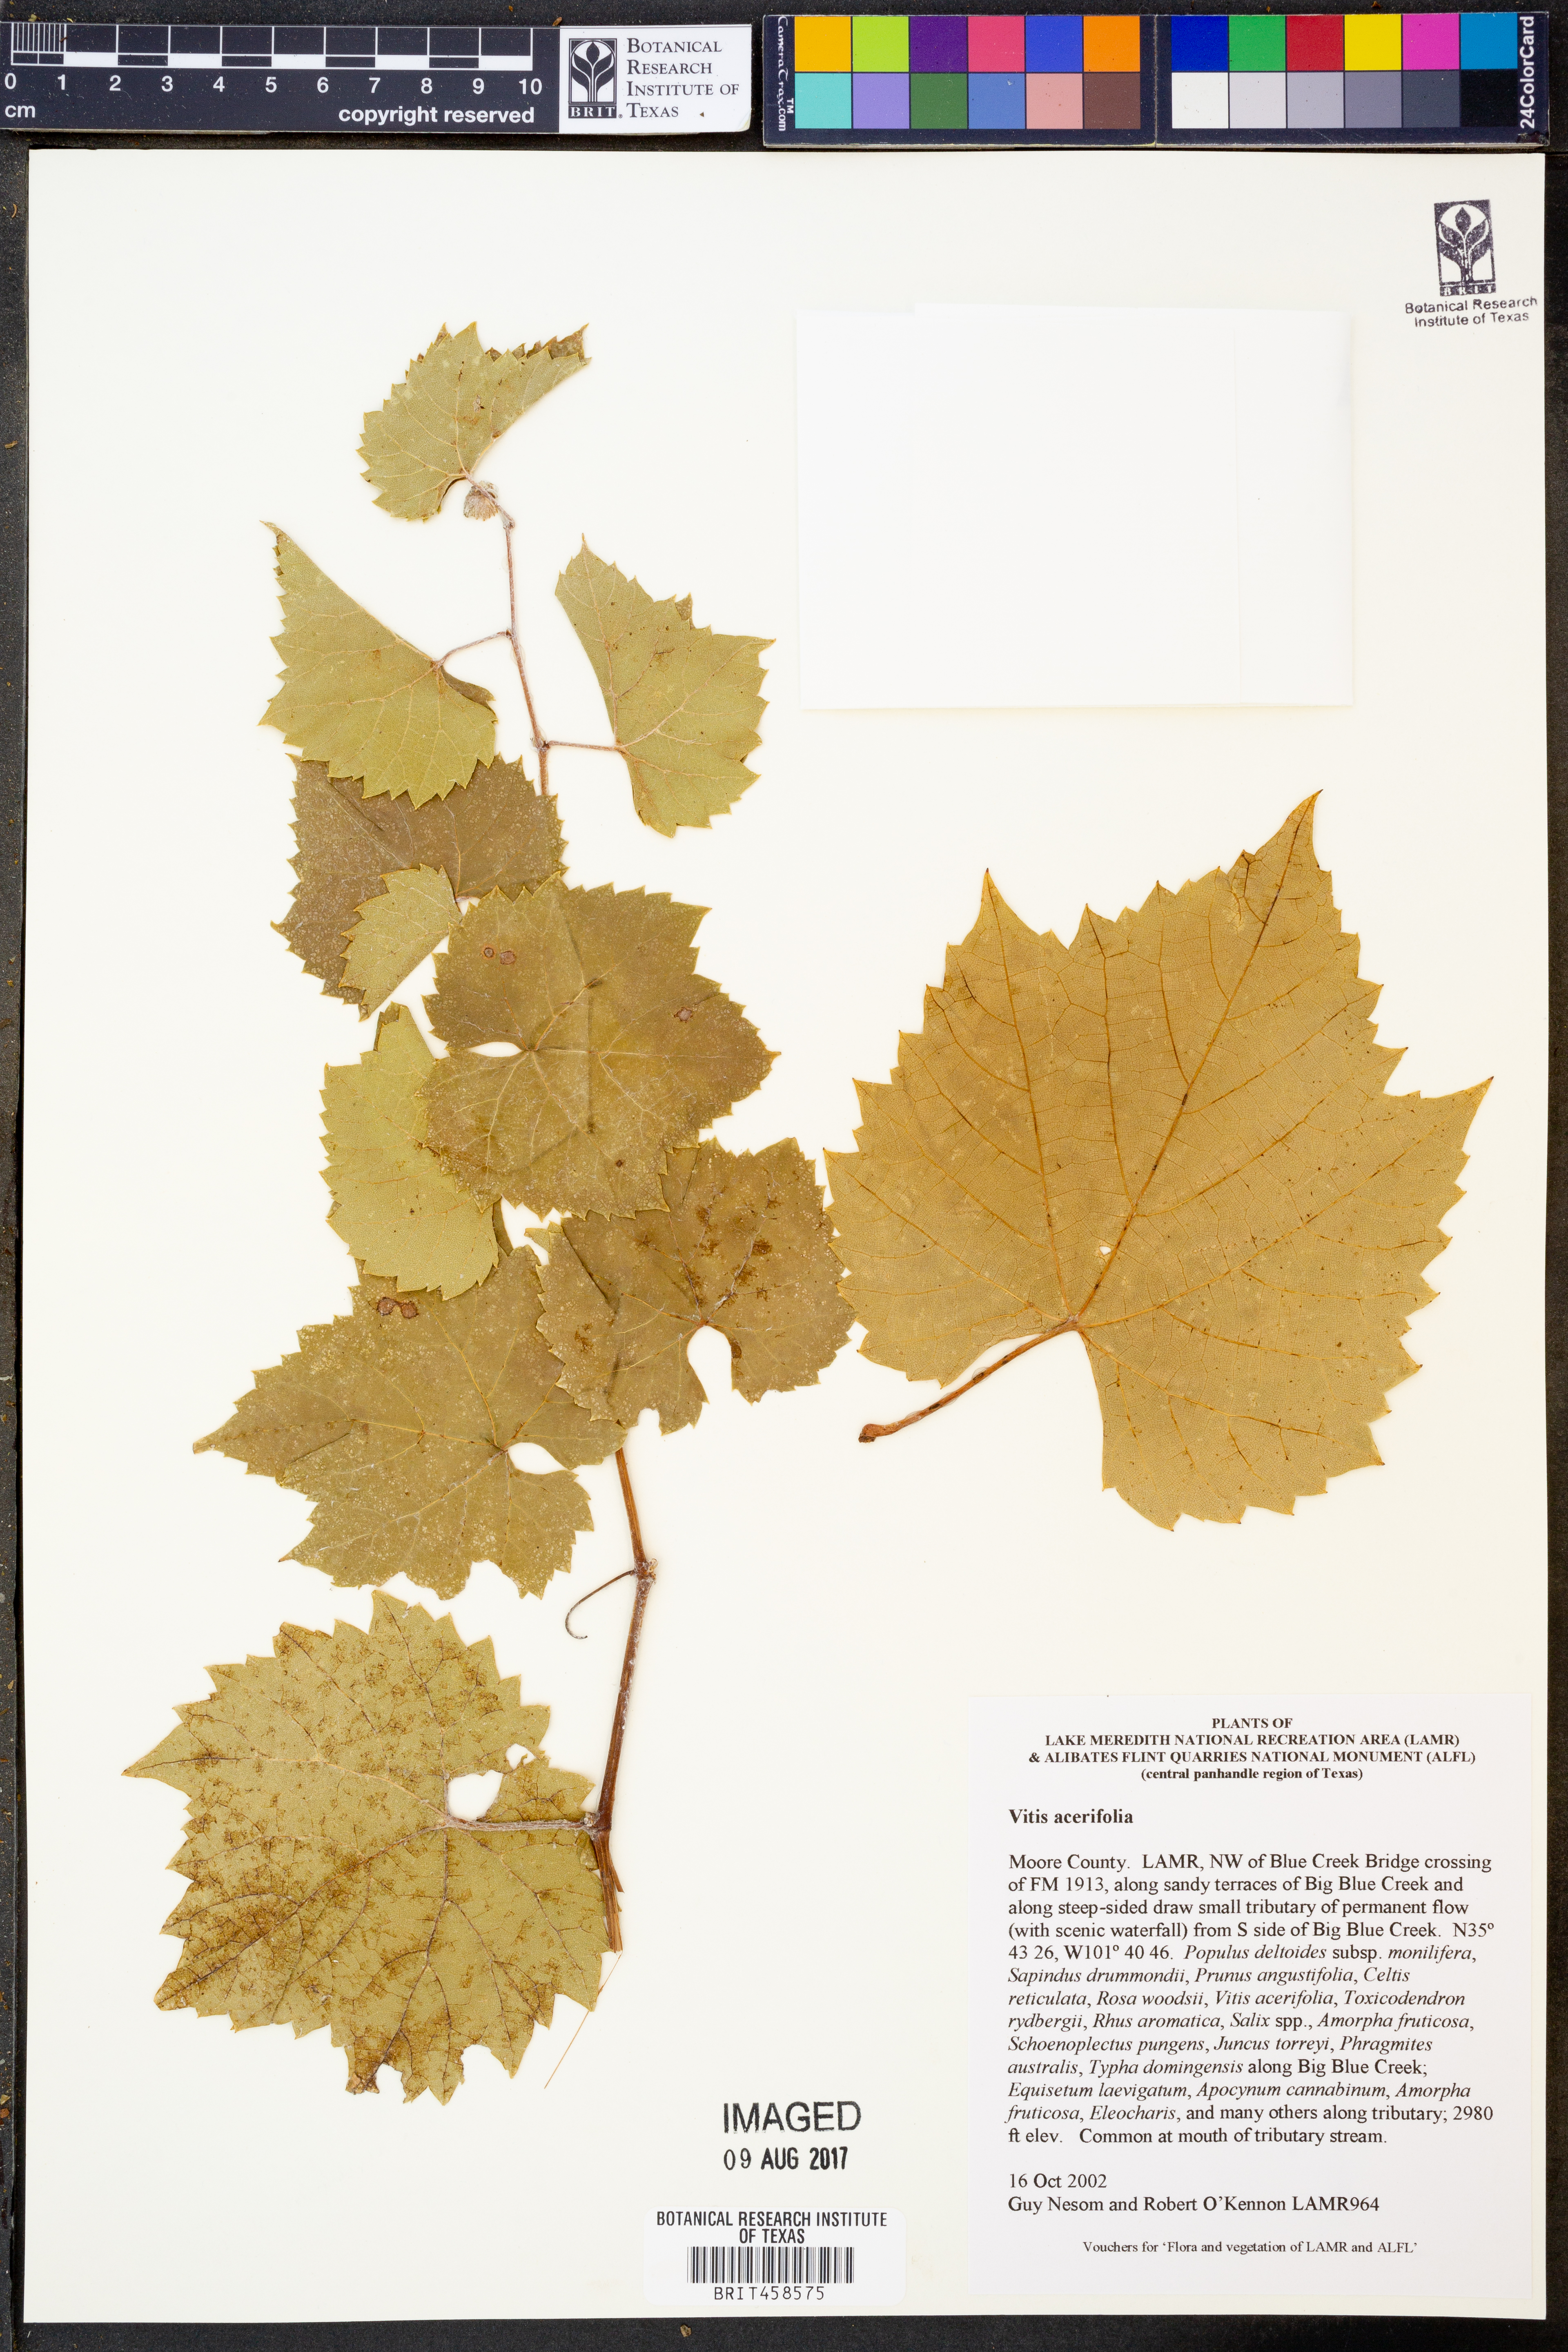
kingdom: Plantae
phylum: Tracheophyta
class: Magnoliopsida
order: Vitales
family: Vitaceae
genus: Vitis
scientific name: Vitis acerifolia
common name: Bush grape
